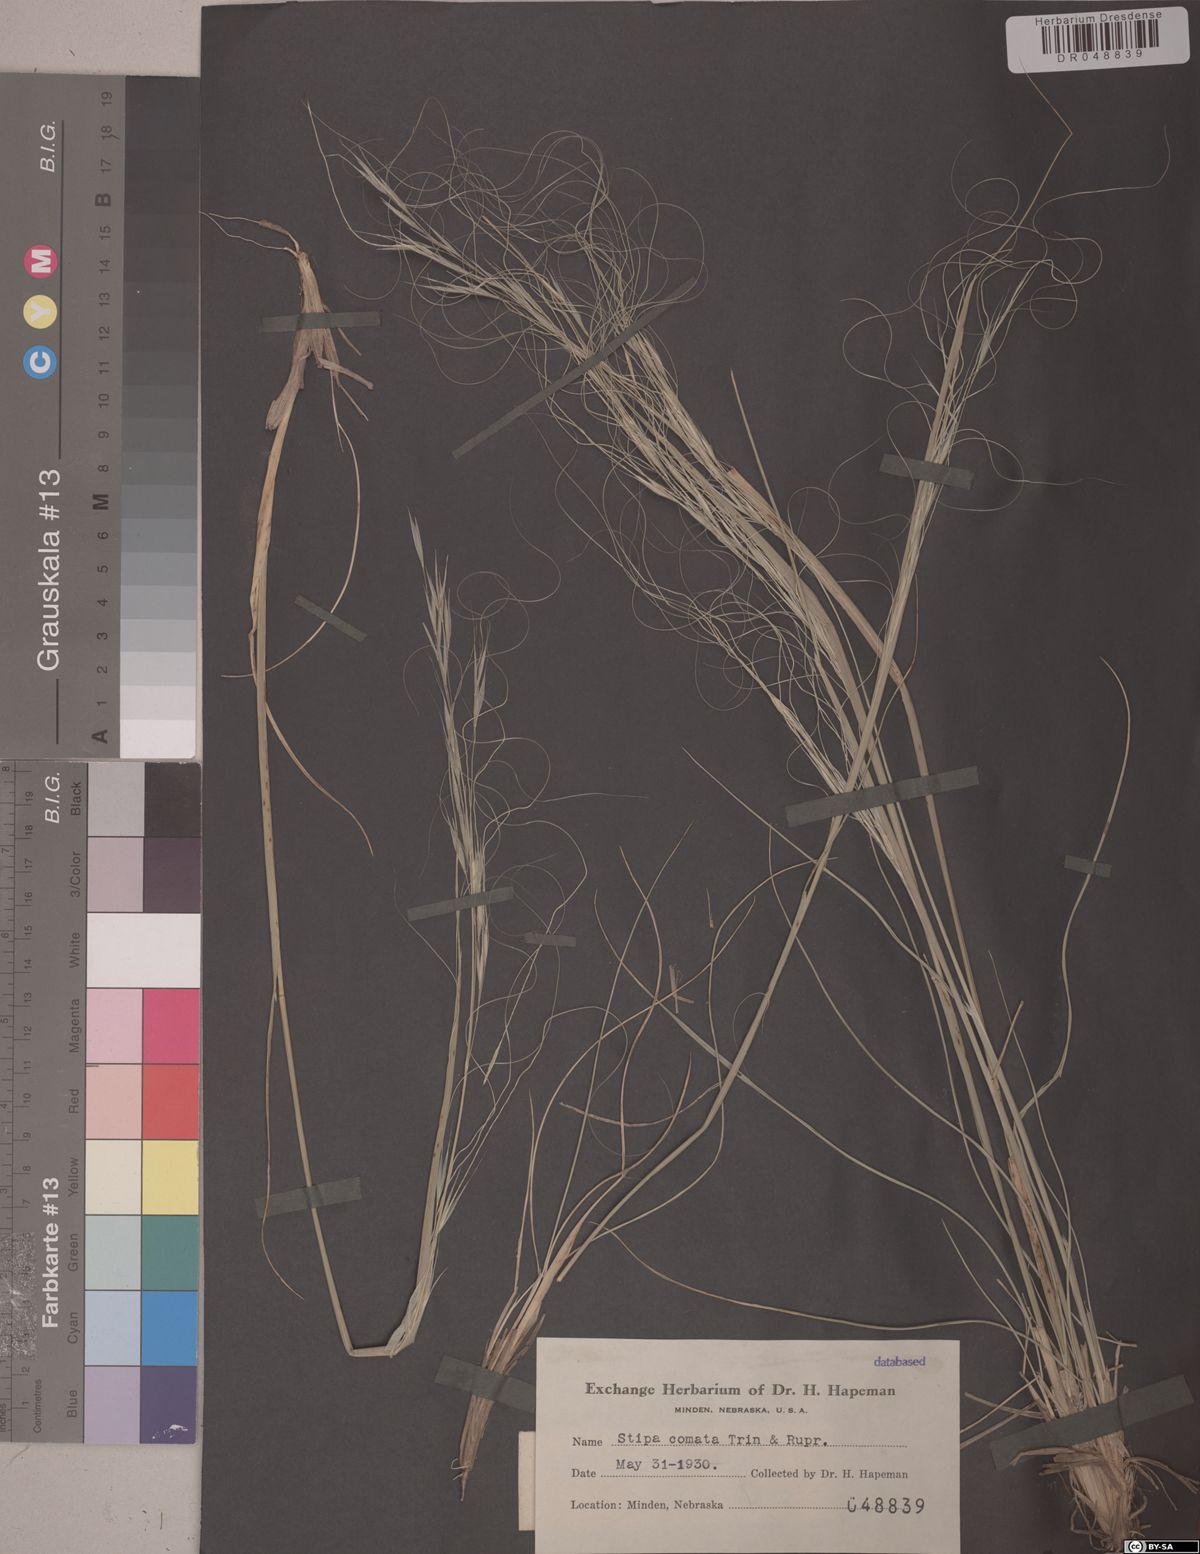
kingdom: Plantae
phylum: Tracheophyta
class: Liliopsida
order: Poales
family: Poaceae
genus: Hesperostipa
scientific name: Hesperostipa comata
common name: Needle-and-thread grass
